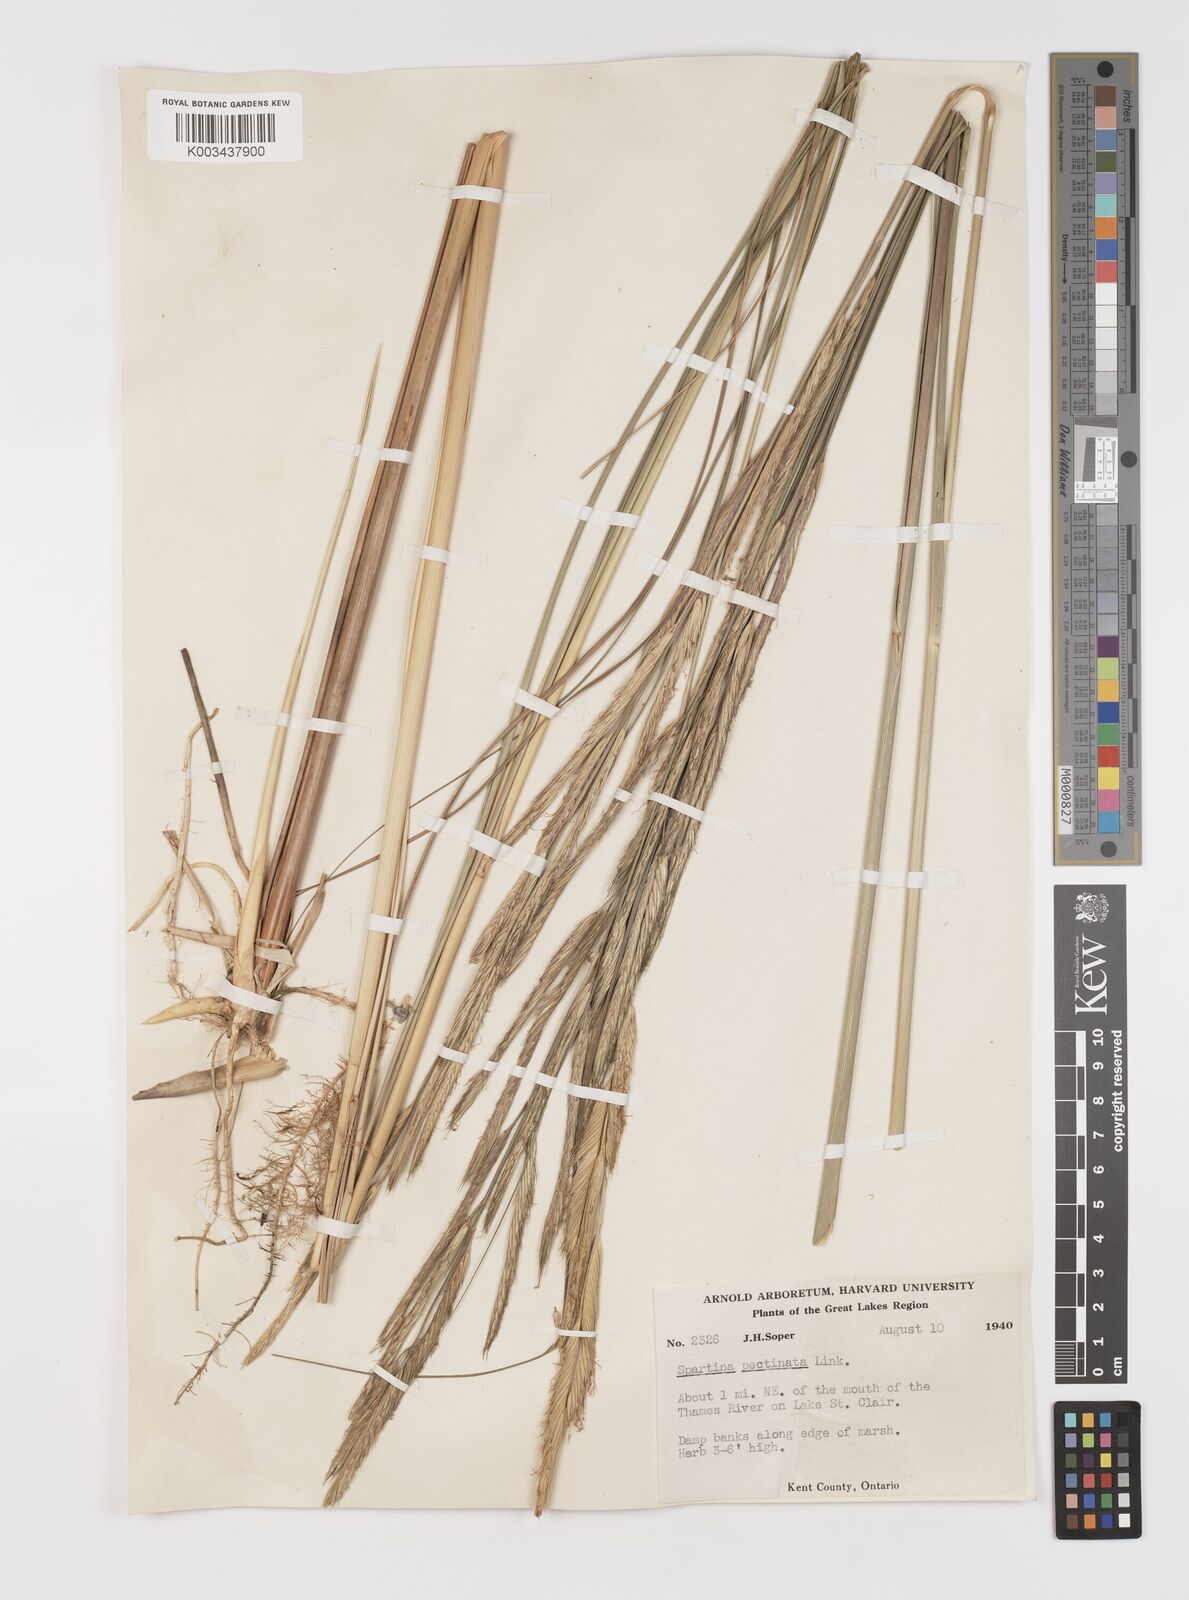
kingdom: Plantae
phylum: Tracheophyta
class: Liliopsida
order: Poales
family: Poaceae
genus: Sporobolus
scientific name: Sporobolus michauxianus
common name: Freshwater cordgrass
